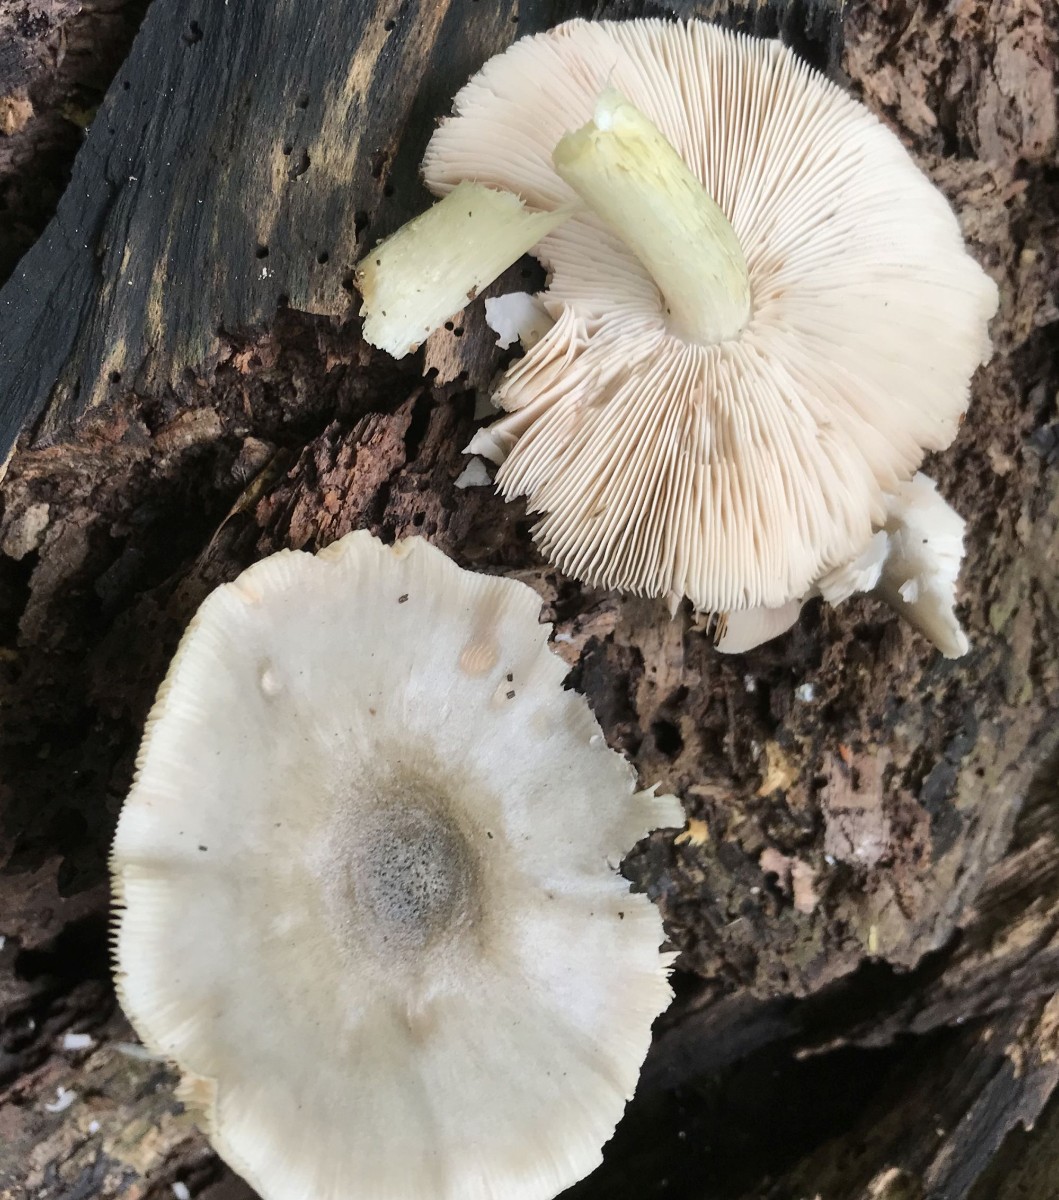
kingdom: Fungi
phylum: Basidiomycota
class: Agaricomycetes
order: Agaricales
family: Pluteaceae
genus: Pluteus
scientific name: Pluteus salicinus
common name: stiv skærmhat
